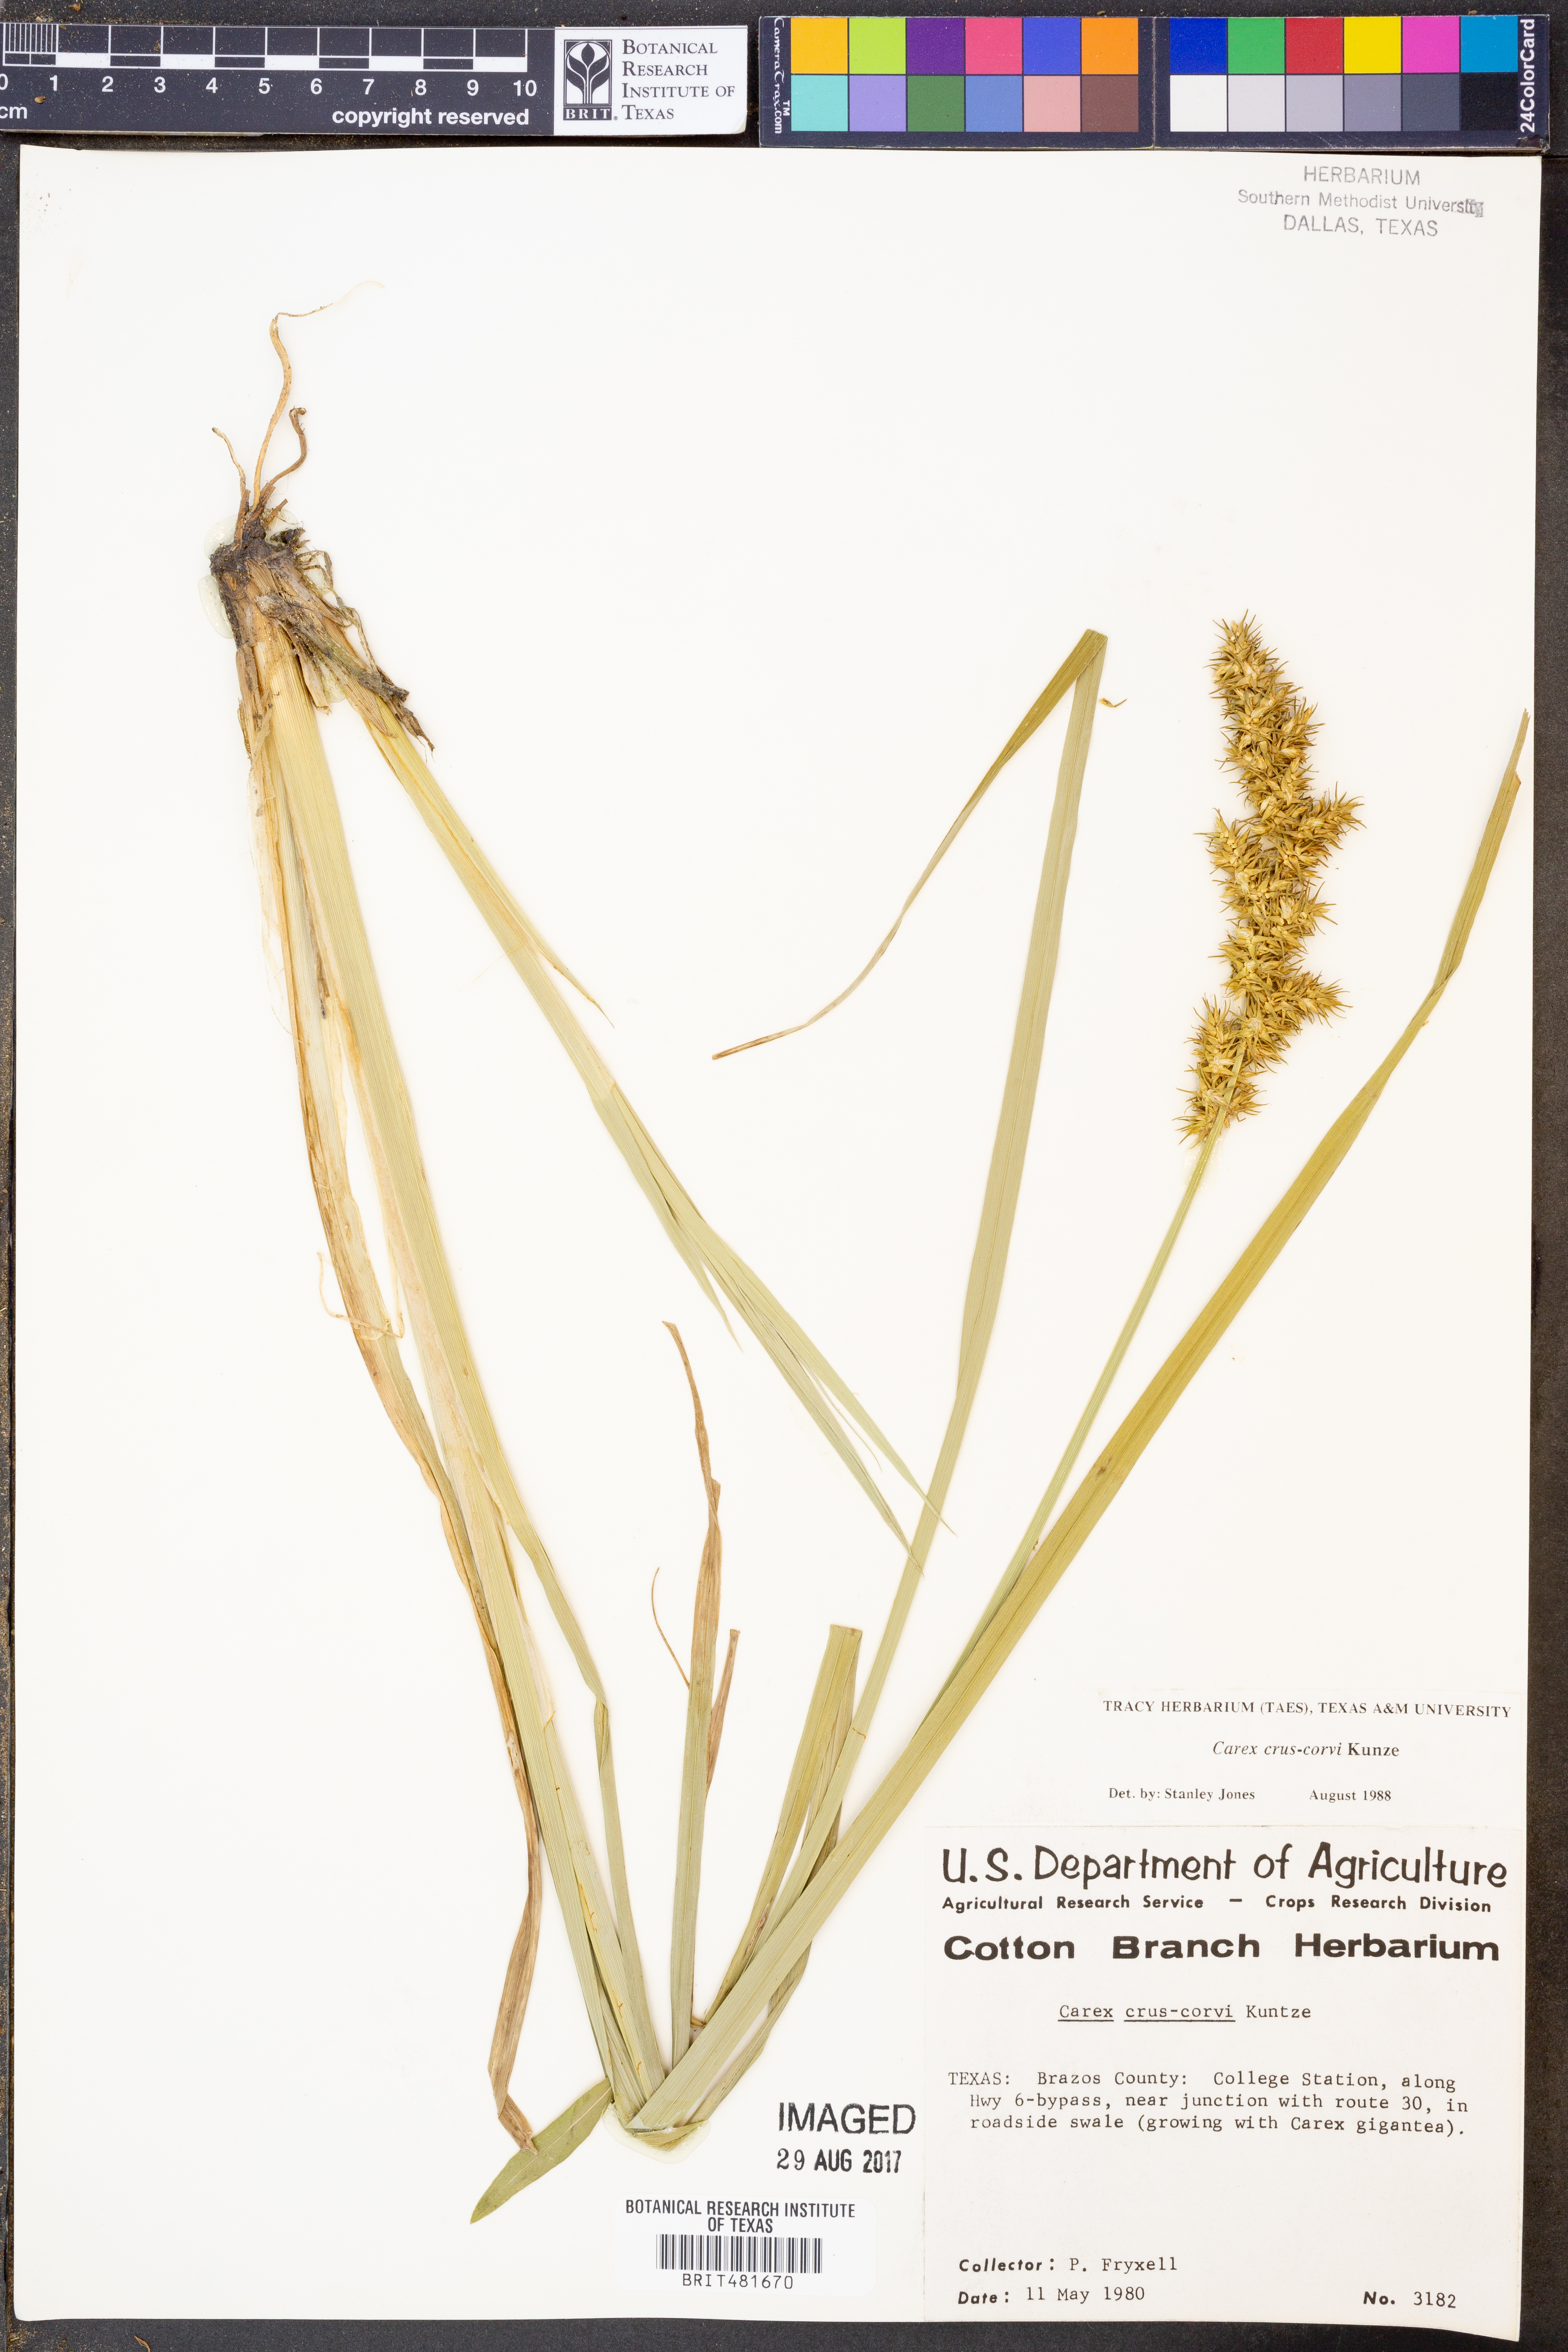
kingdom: Plantae
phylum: Tracheophyta
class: Liliopsida
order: Poales
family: Cyperaceae
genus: Carex
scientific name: Carex crus-corvi
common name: Crow-spur sedge
